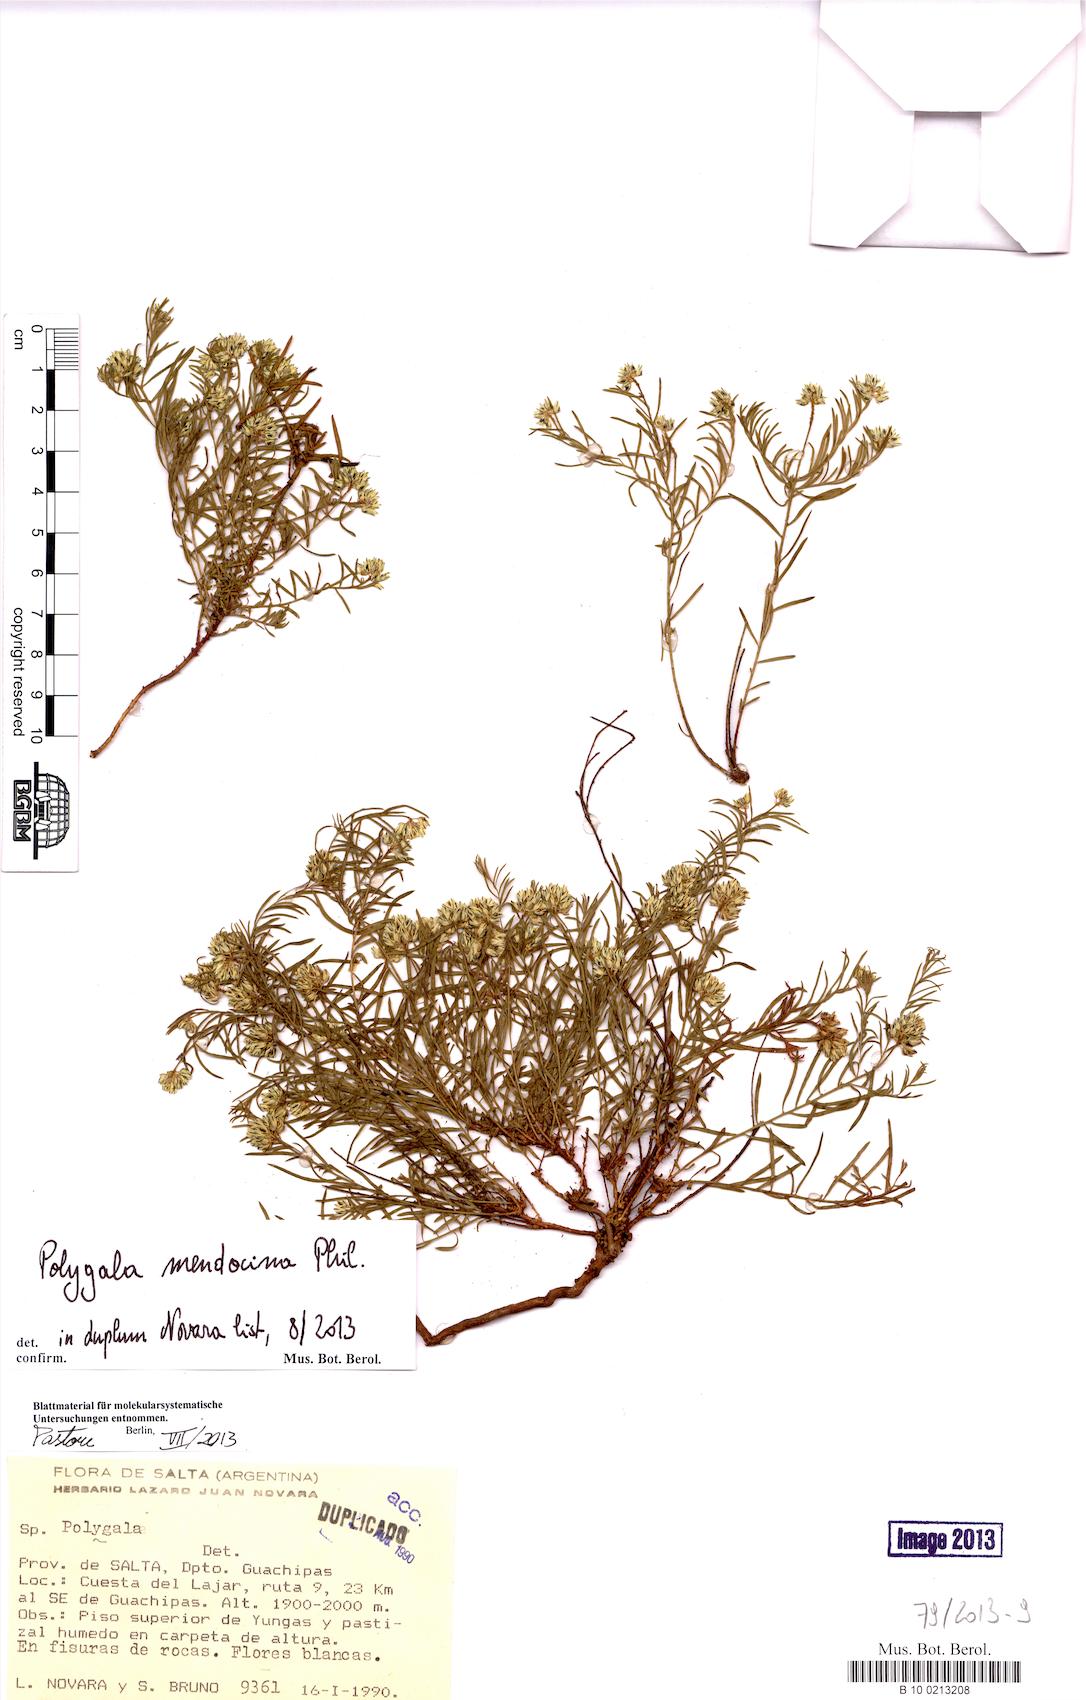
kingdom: Plantae
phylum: Tracheophyta
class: Magnoliopsida
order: Fabales
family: Polygalaceae
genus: Polygala
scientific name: Polygala subandina
